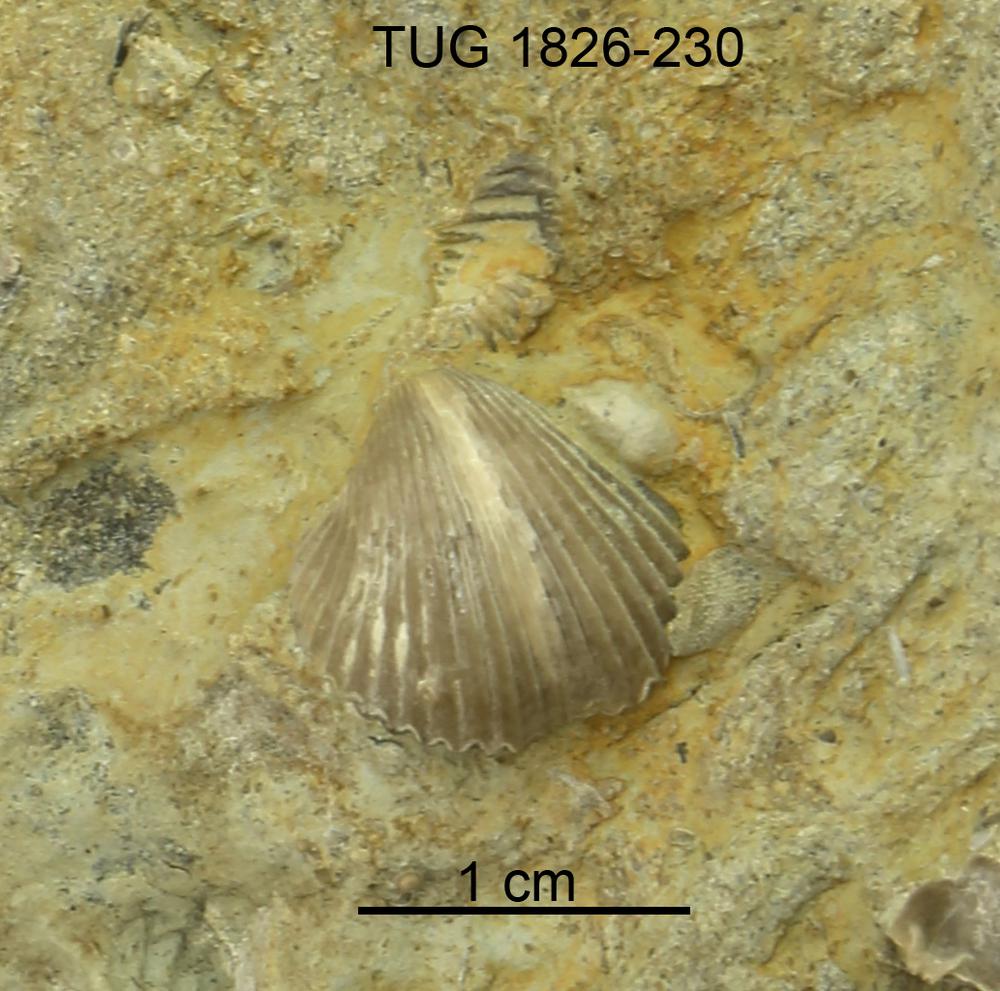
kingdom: Animalia
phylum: Brachiopoda
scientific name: Brachiopoda
